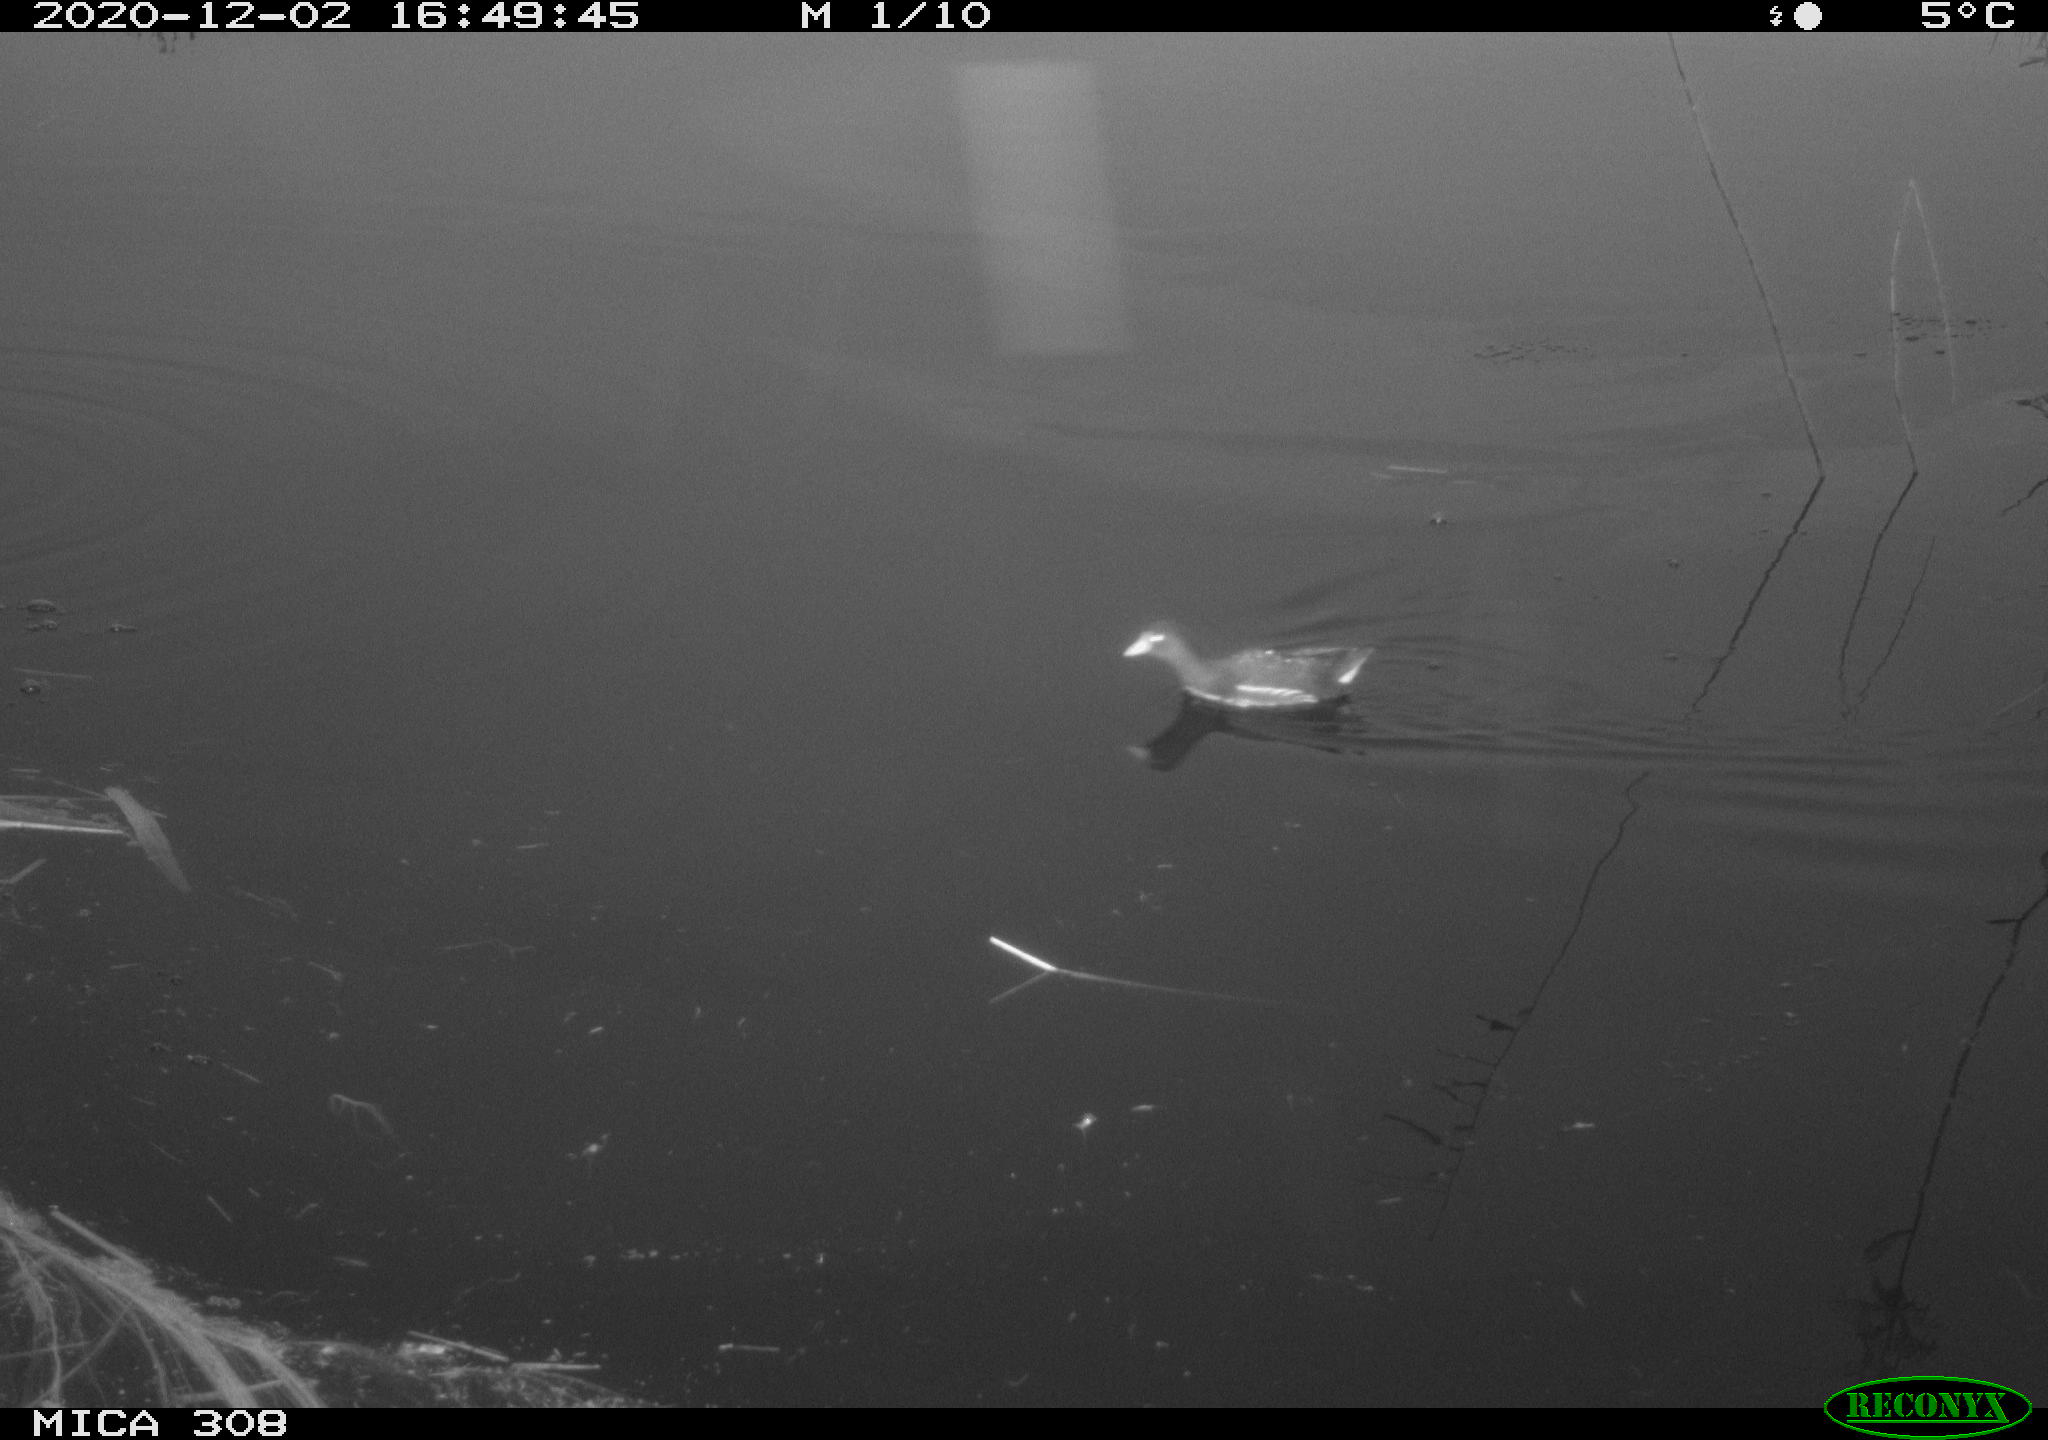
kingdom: Animalia
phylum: Chordata
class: Aves
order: Gruiformes
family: Rallidae
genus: Gallinula
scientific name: Gallinula chloropus
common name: Common moorhen
